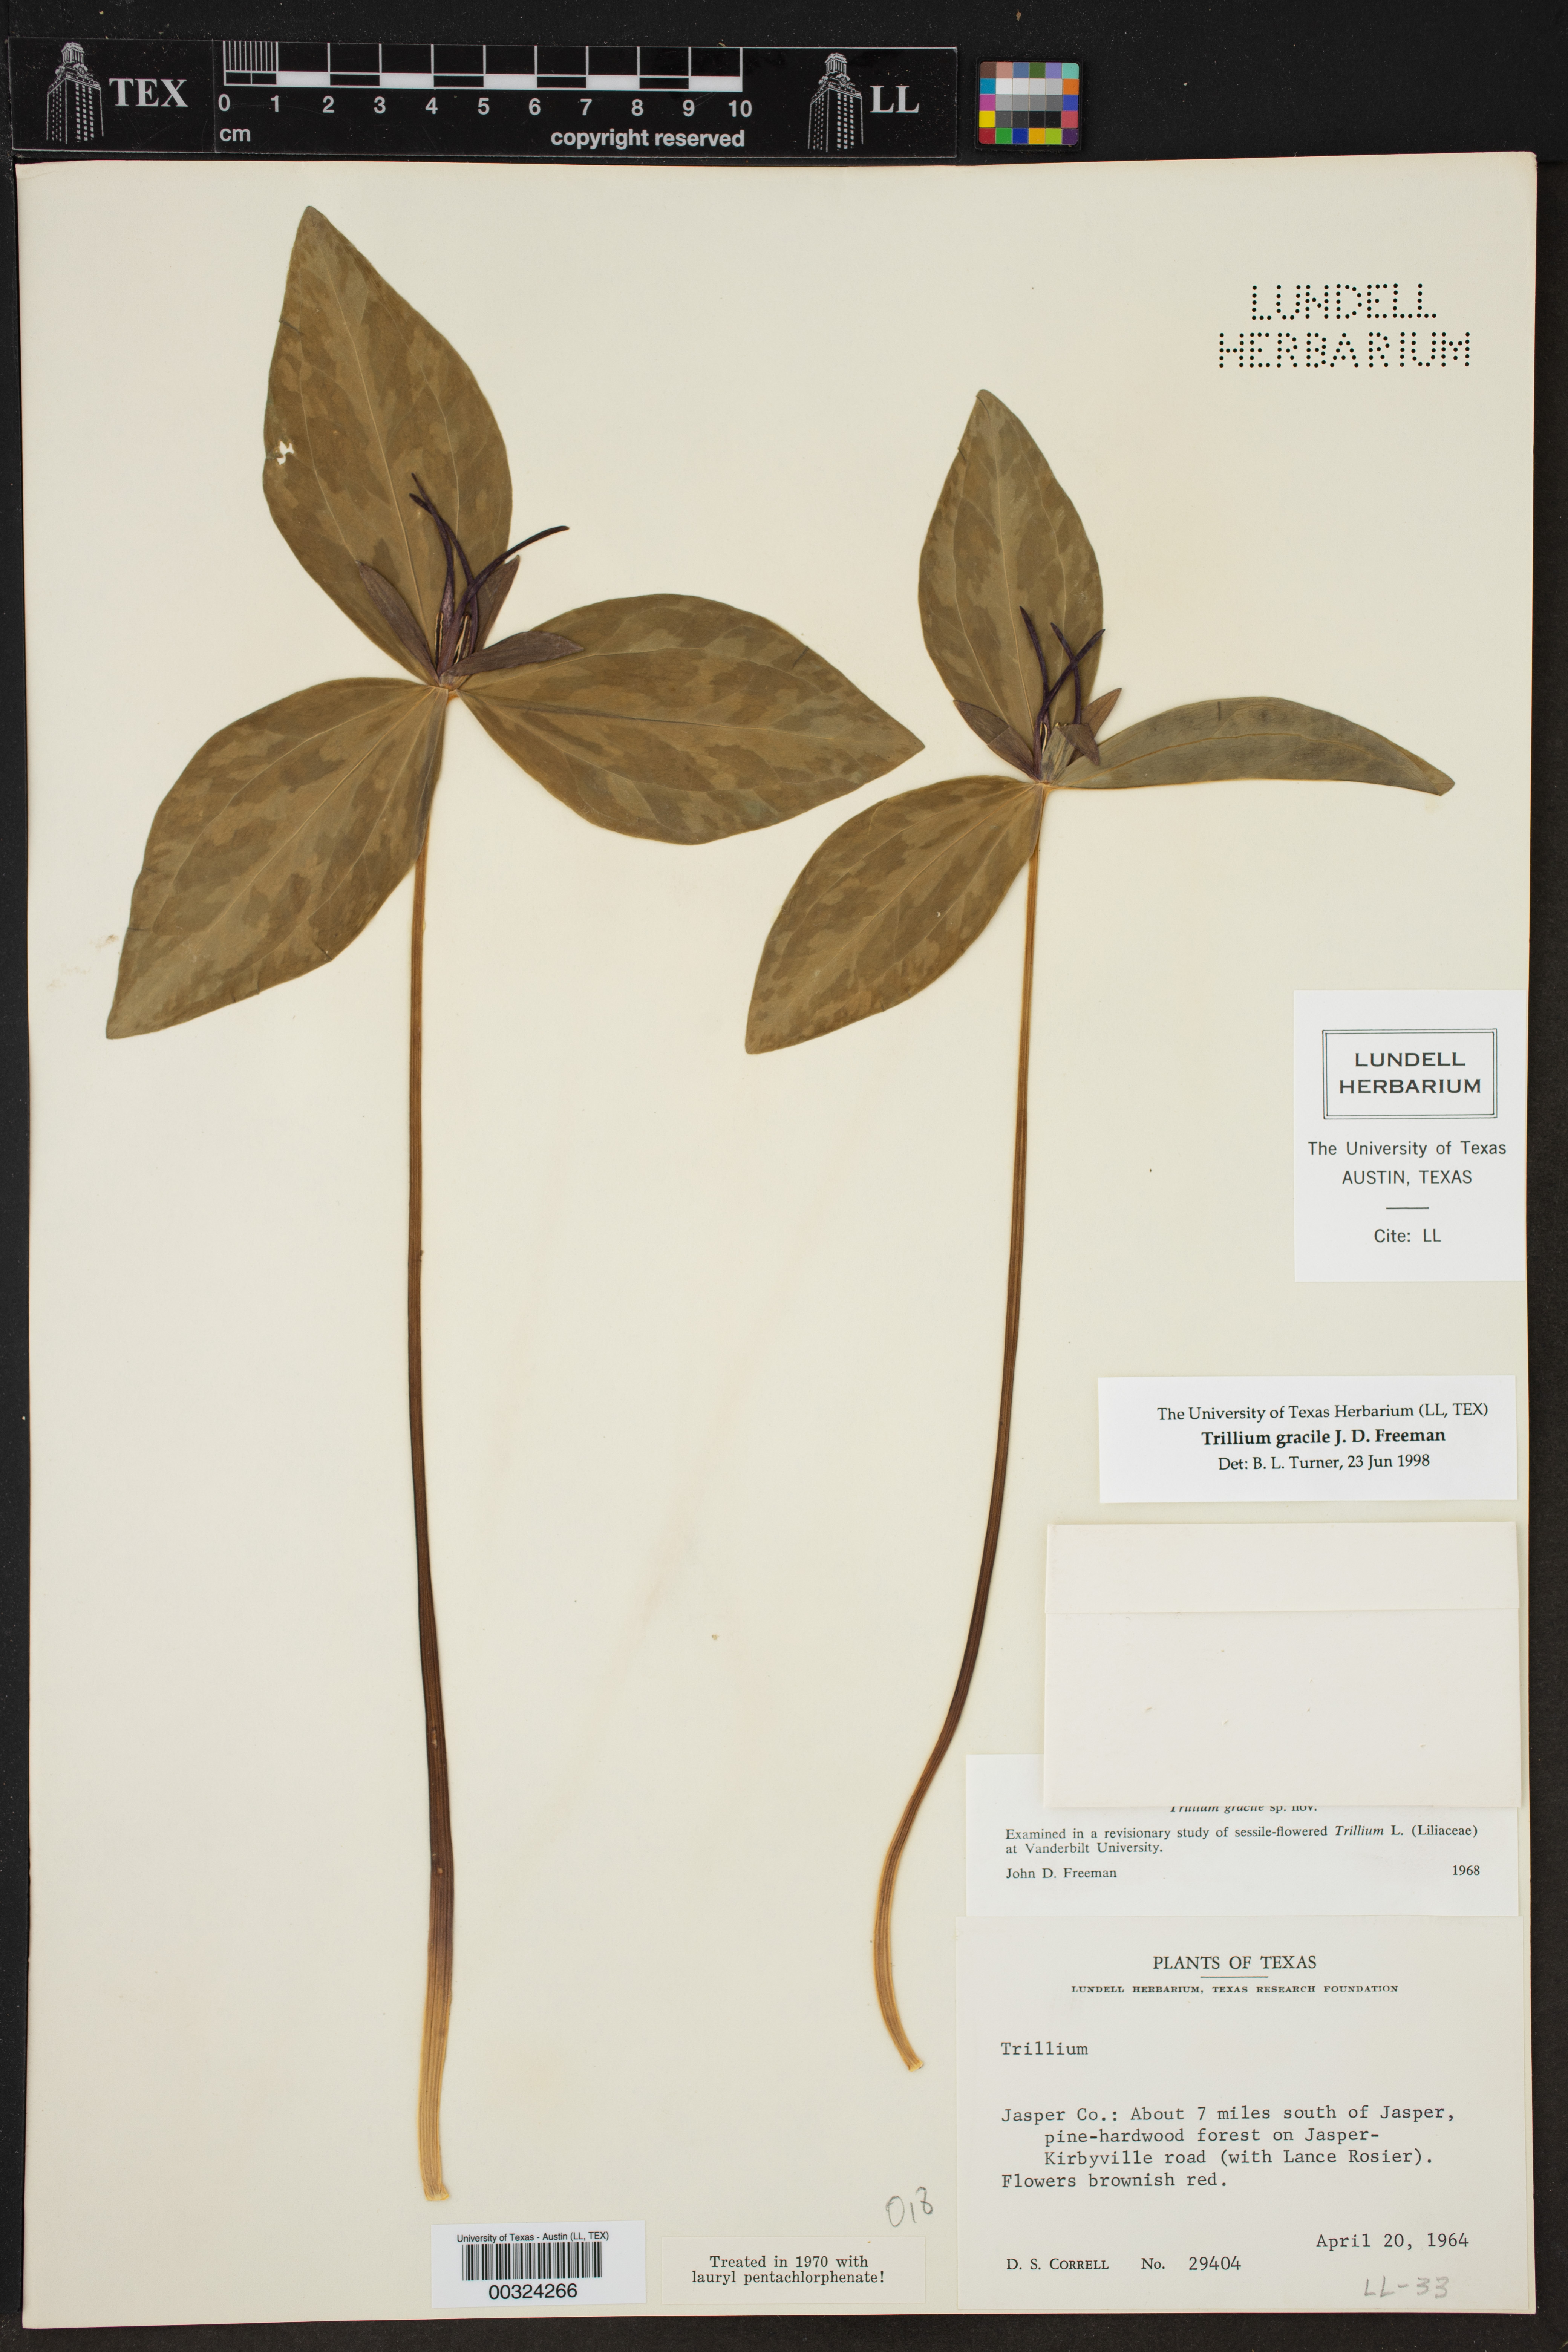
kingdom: Plantae
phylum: Tracheophyta
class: Liliopsida
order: Liliales
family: Melanthiaceae
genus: Trillium
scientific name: Trillium gracile
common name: Graceful trillium
